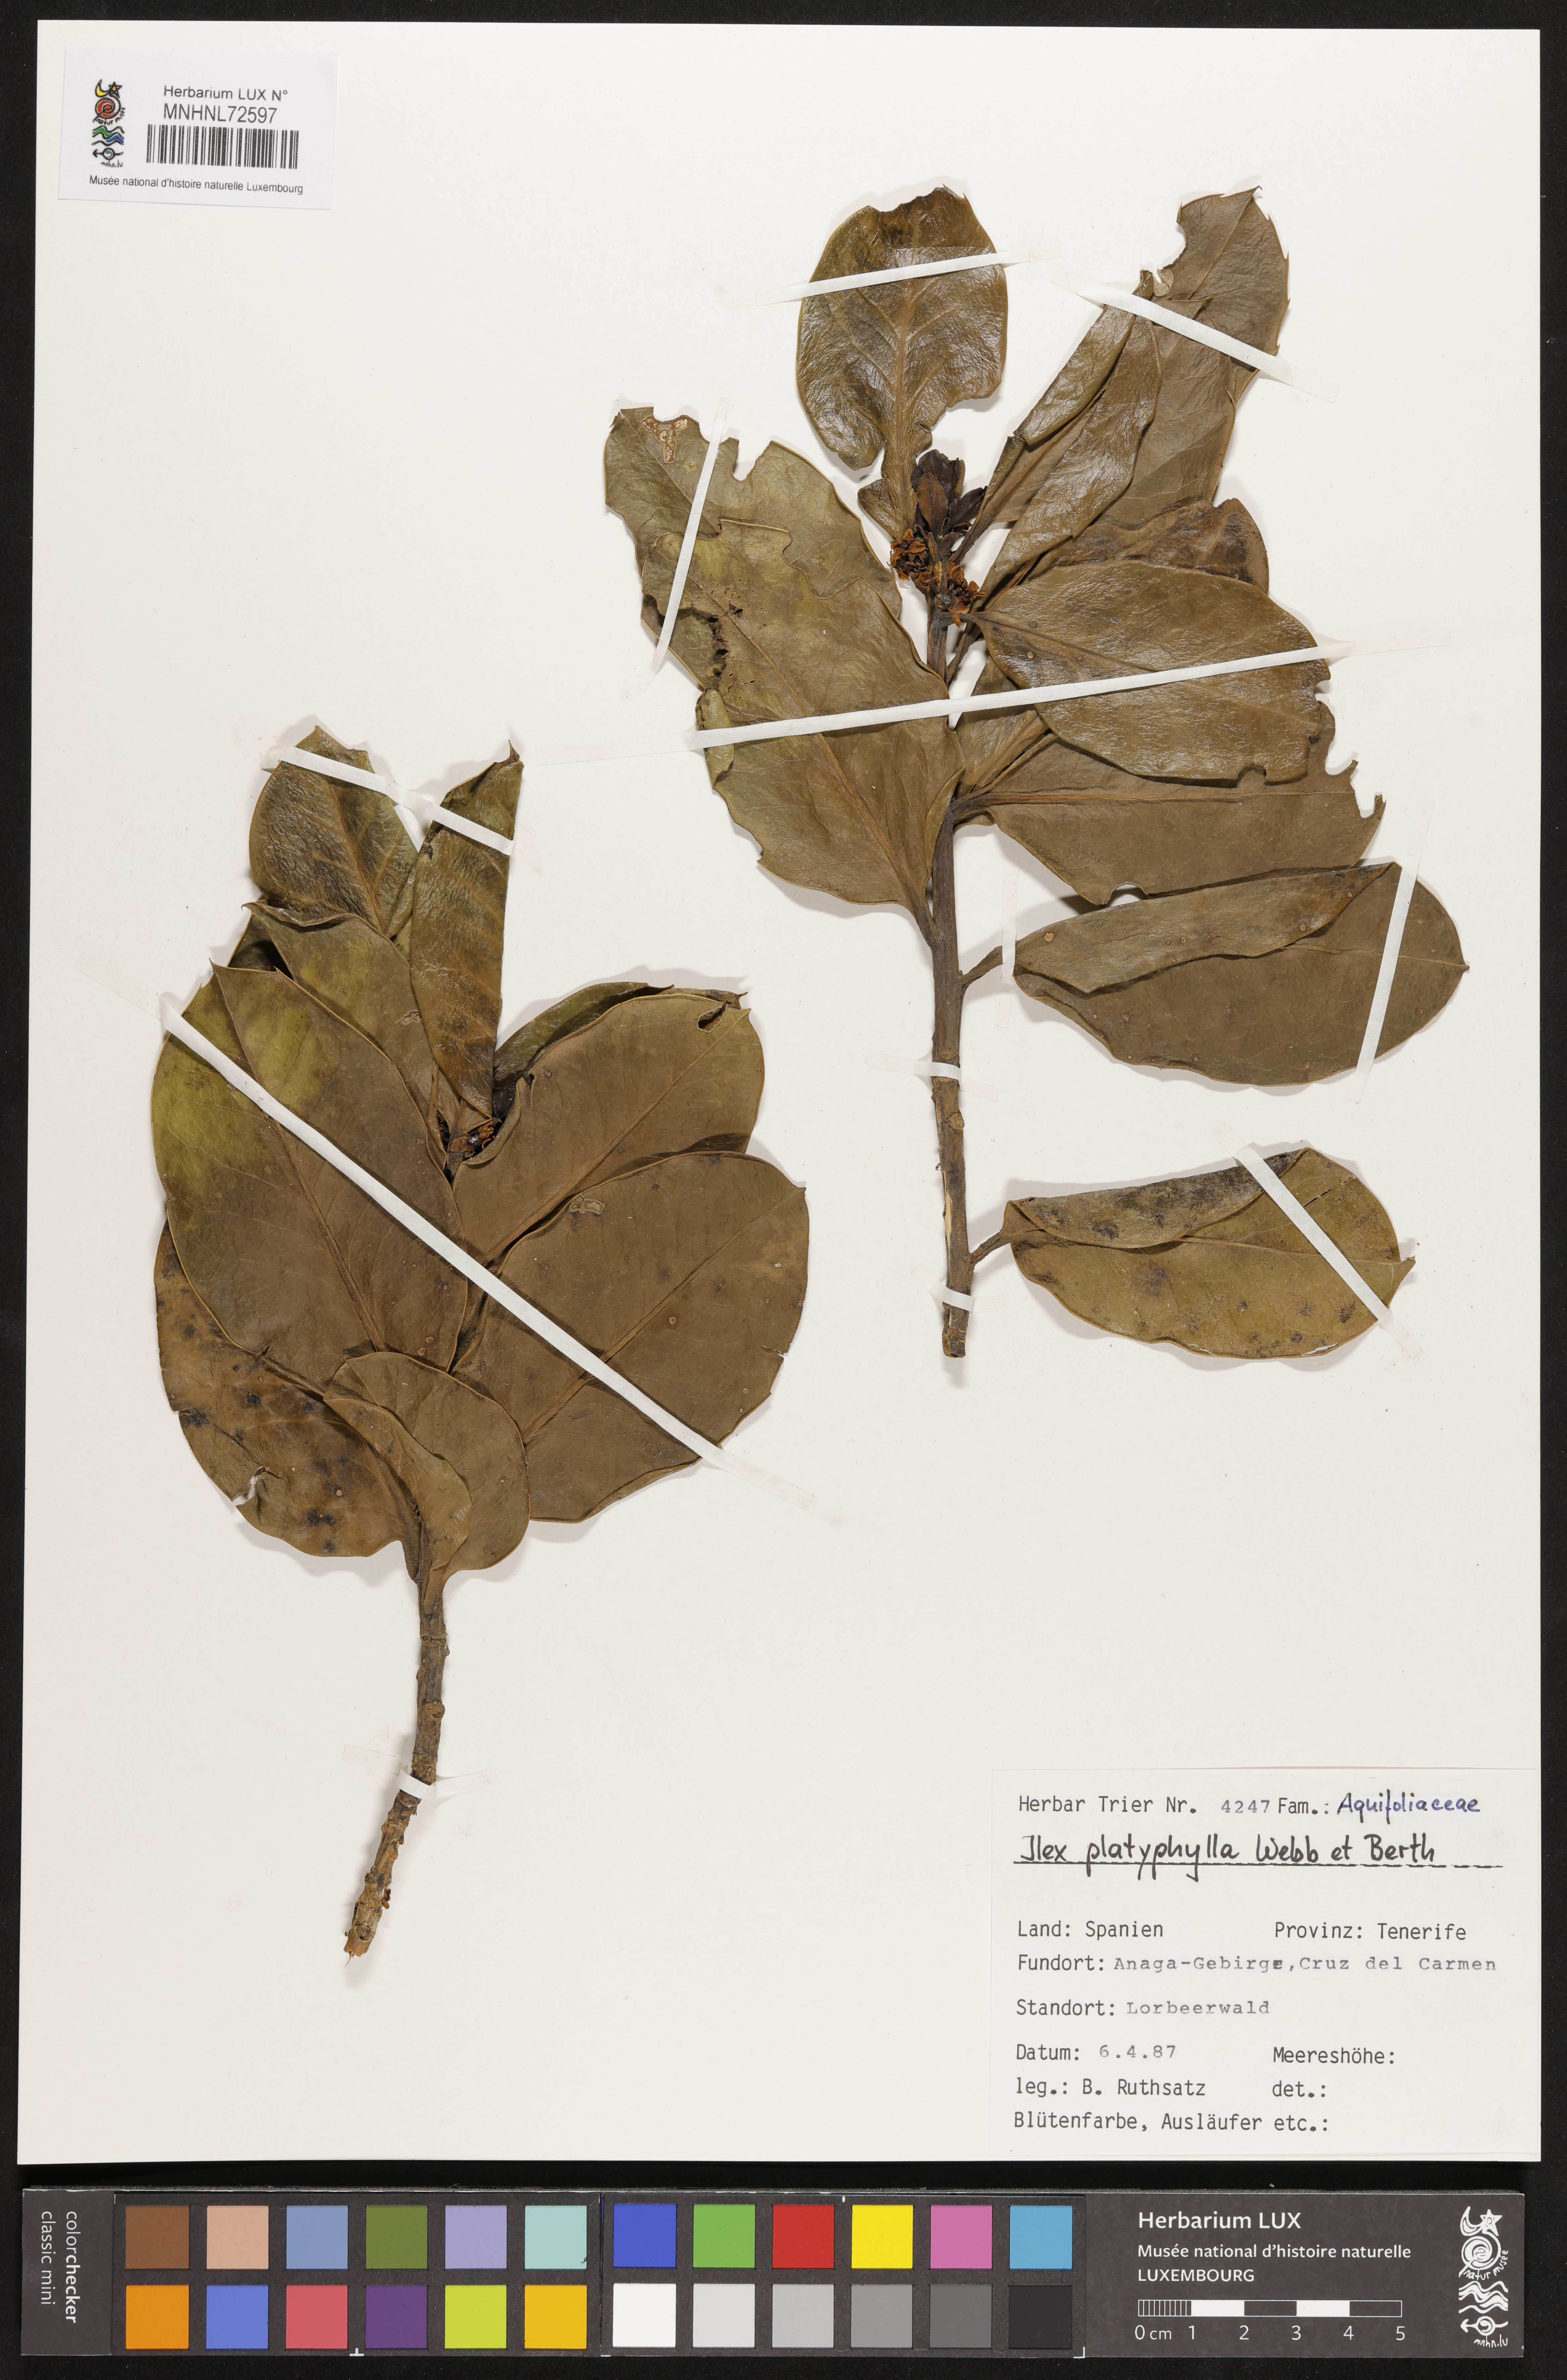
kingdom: Plantae
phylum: Tracheophyta
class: Magnoliopsida
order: Aquifoliales
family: Aquifoliaceae
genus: Ilex
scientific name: Ilex perado
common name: Madeira holly
